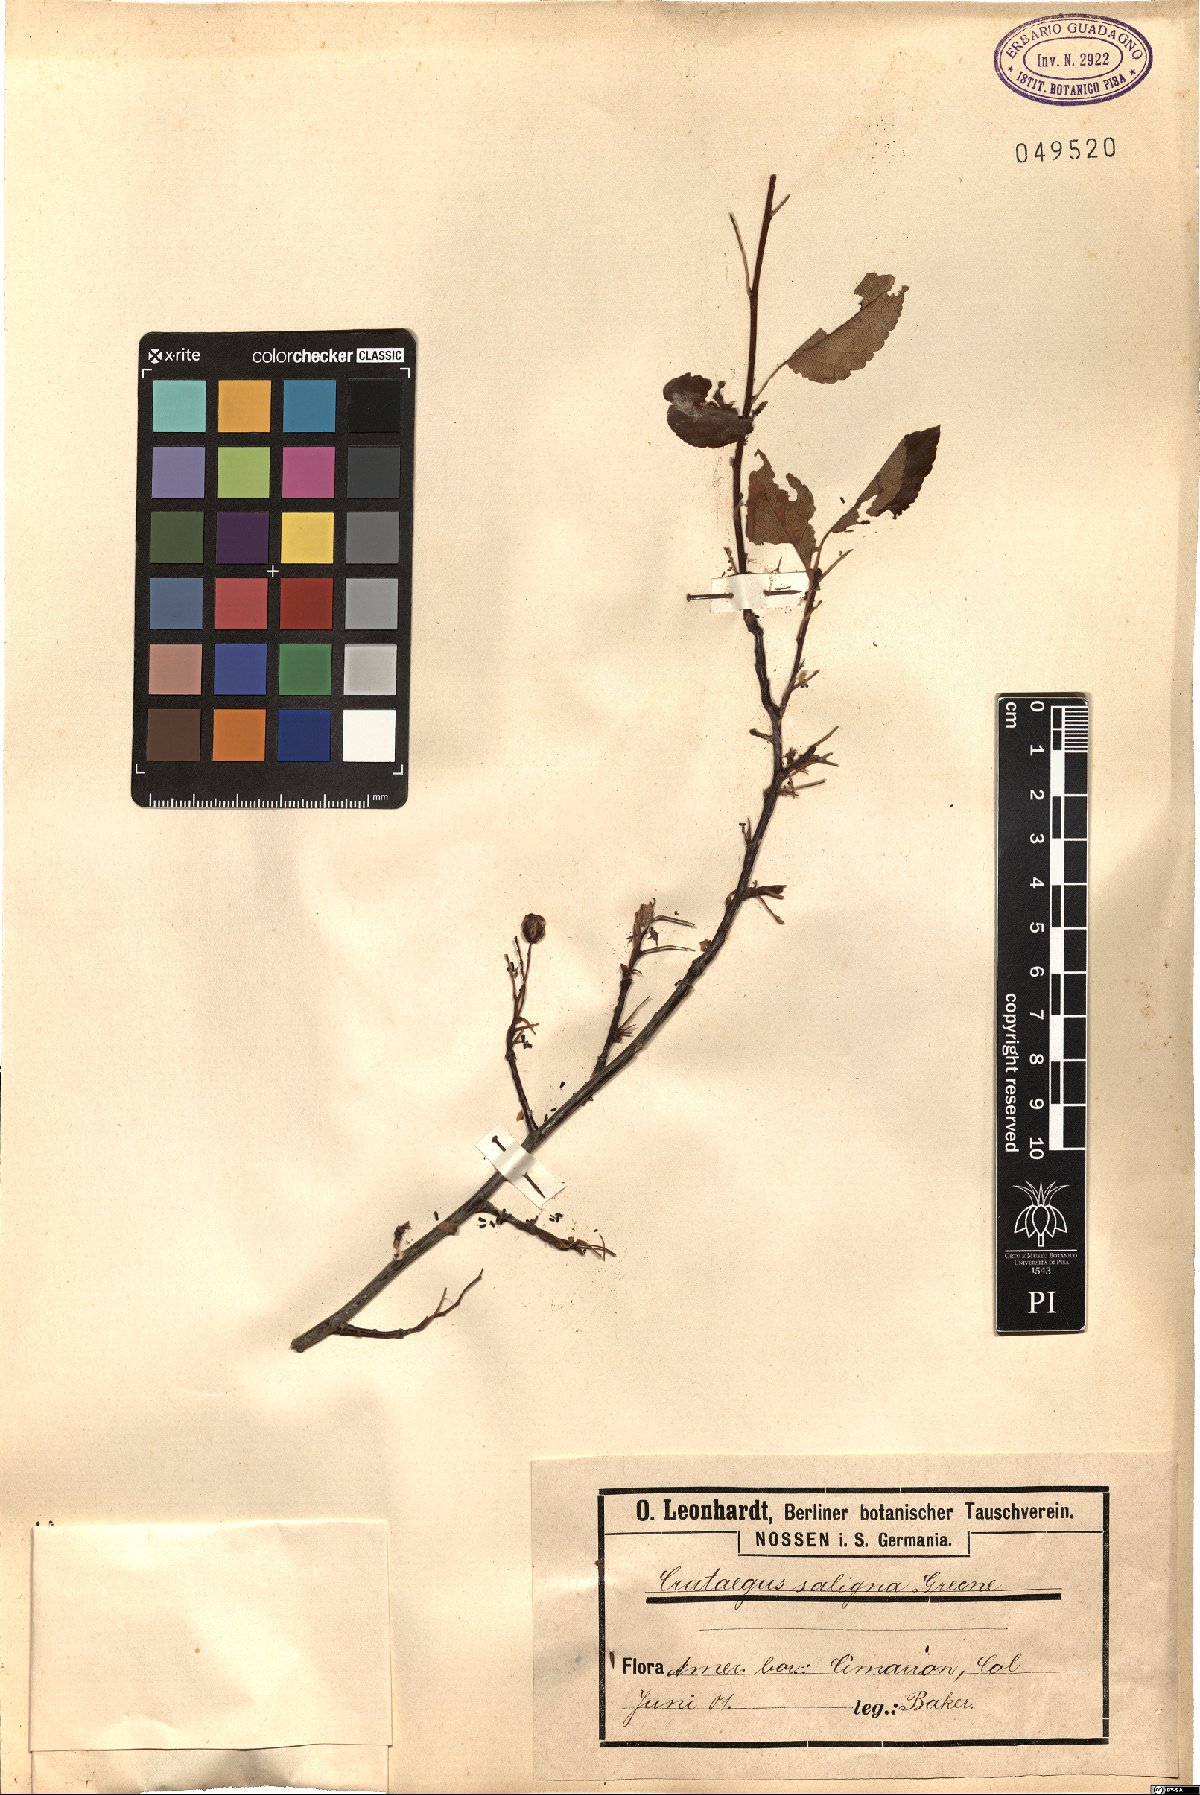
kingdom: Plantae
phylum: Tracheophyta
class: Magnoliopsida
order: Rosales
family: Rosaceae
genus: Crataegus
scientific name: Crataegus saligna
